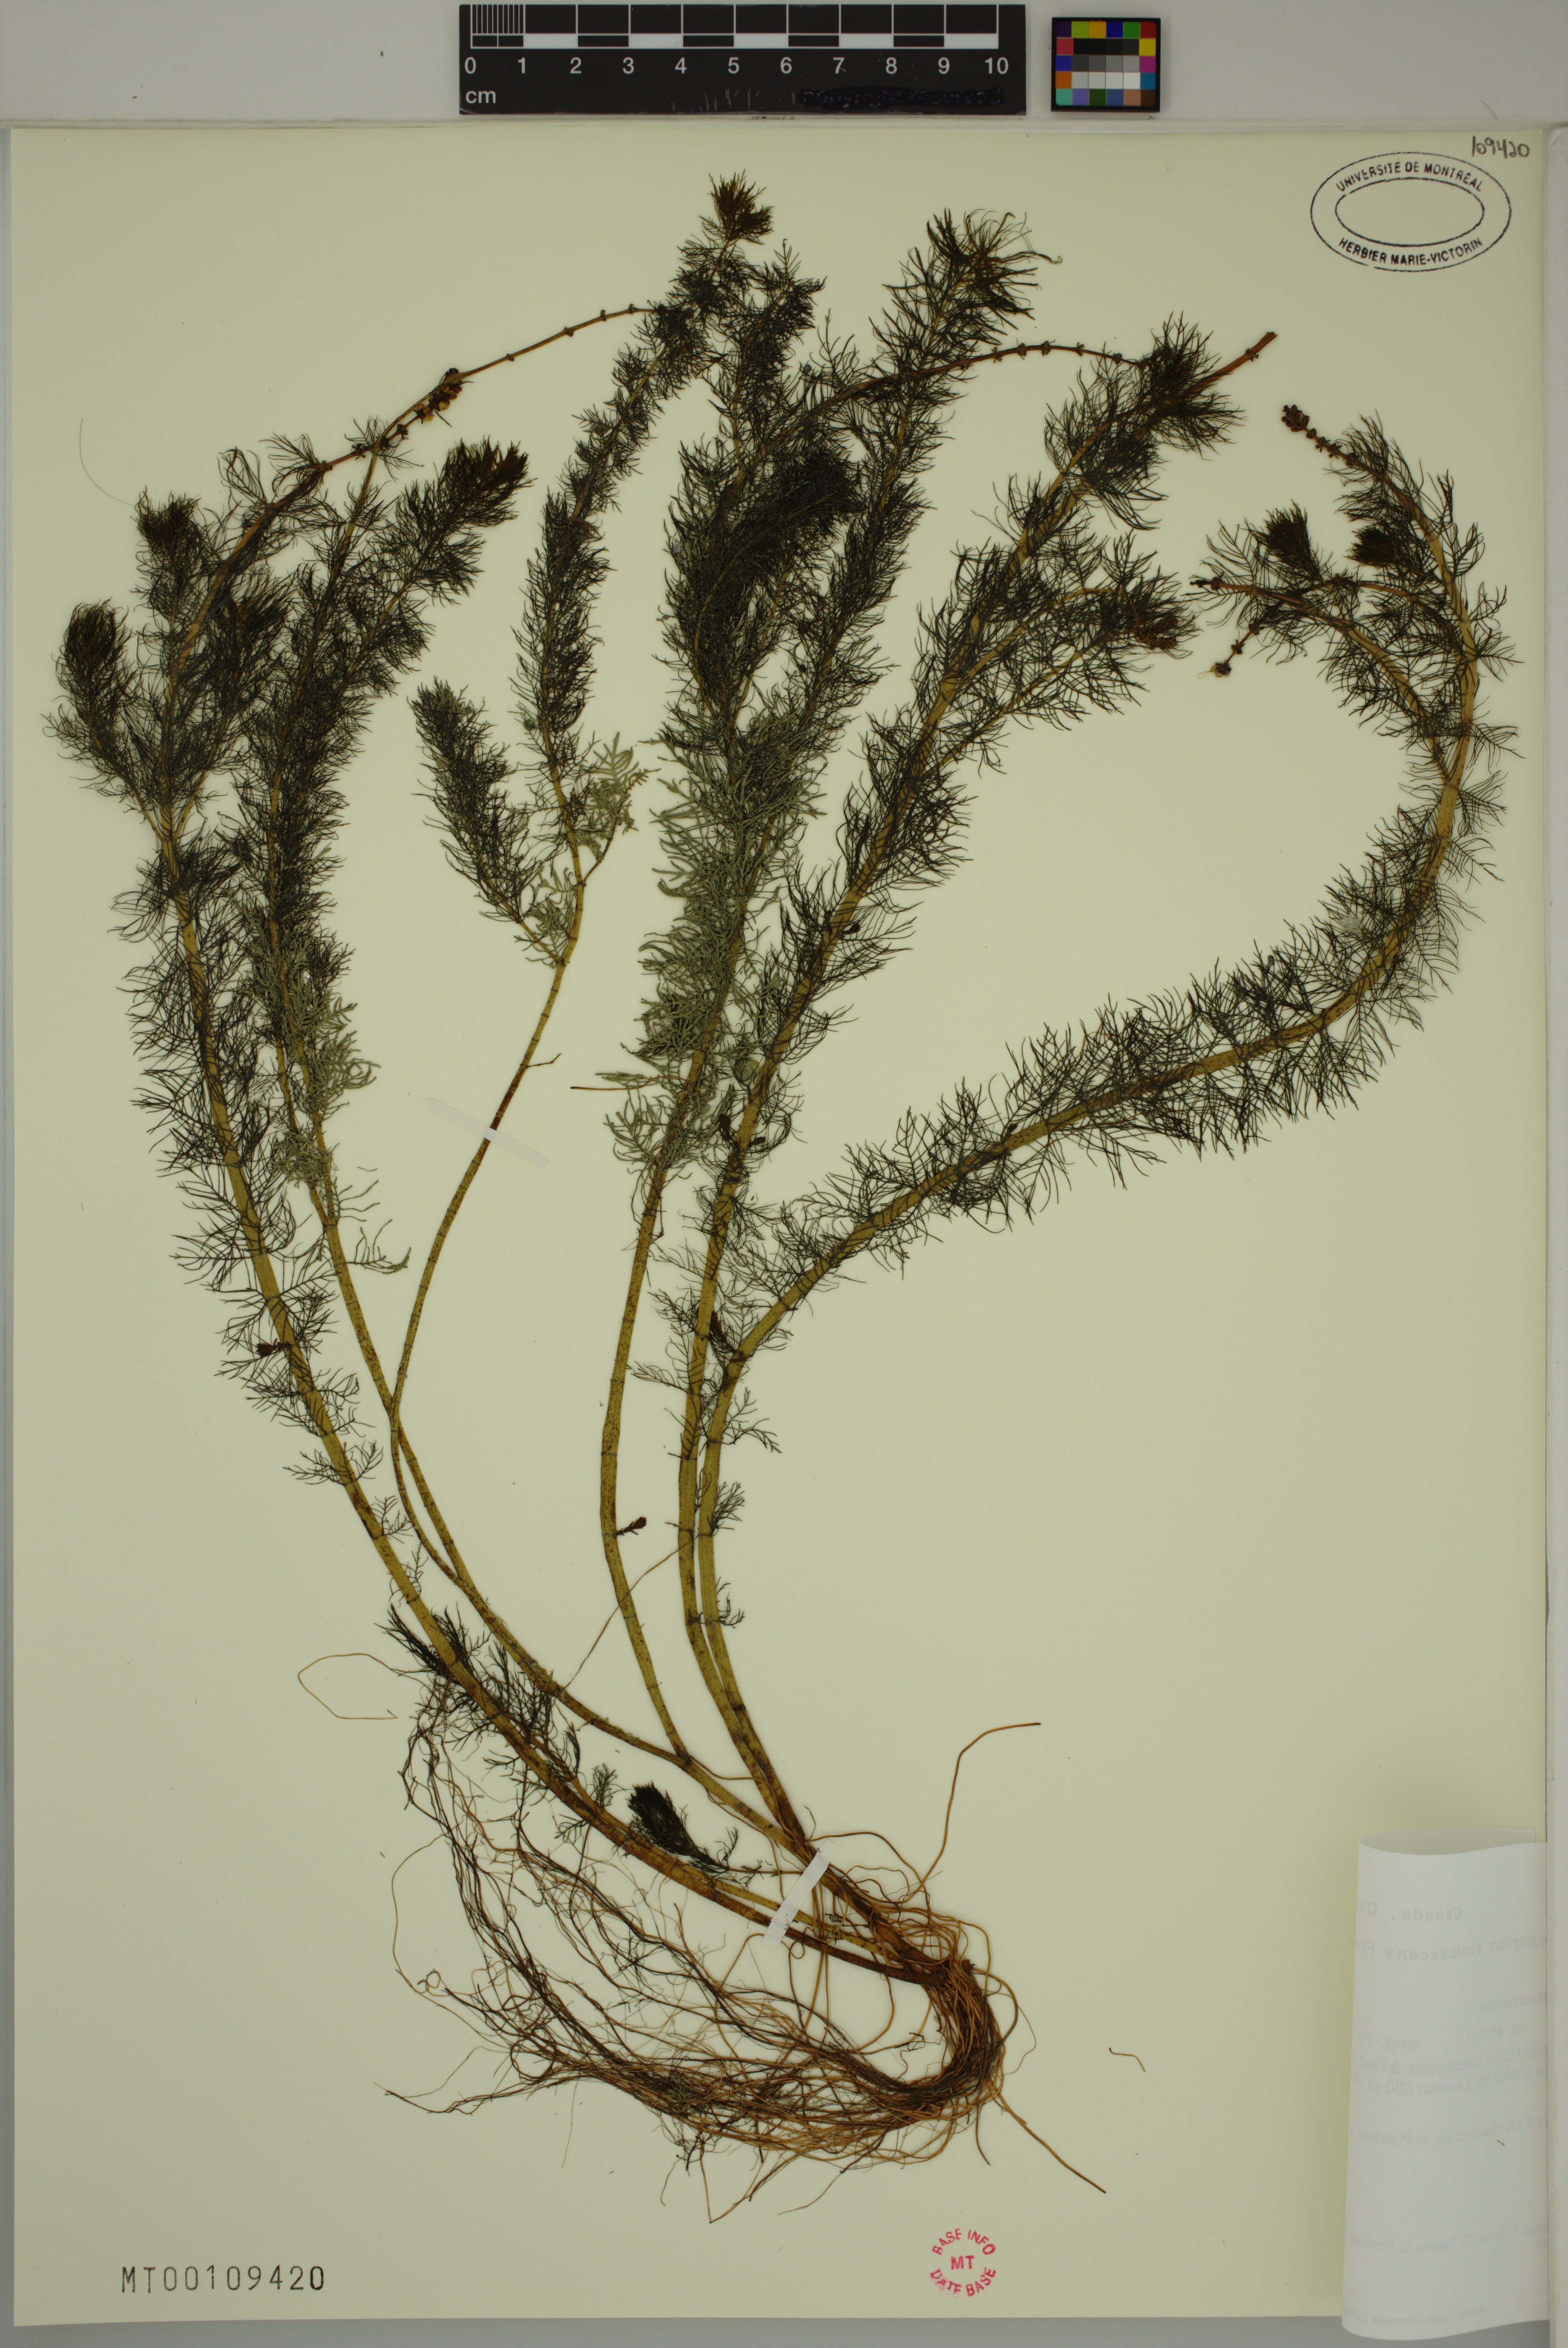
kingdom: Plantae
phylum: Tracheophyta
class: Magnoliopsida
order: Saxifragales
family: Haloragaceae
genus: Myriophyllum
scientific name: Myriophyllum sibiricum
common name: Siberian water-milfoil
